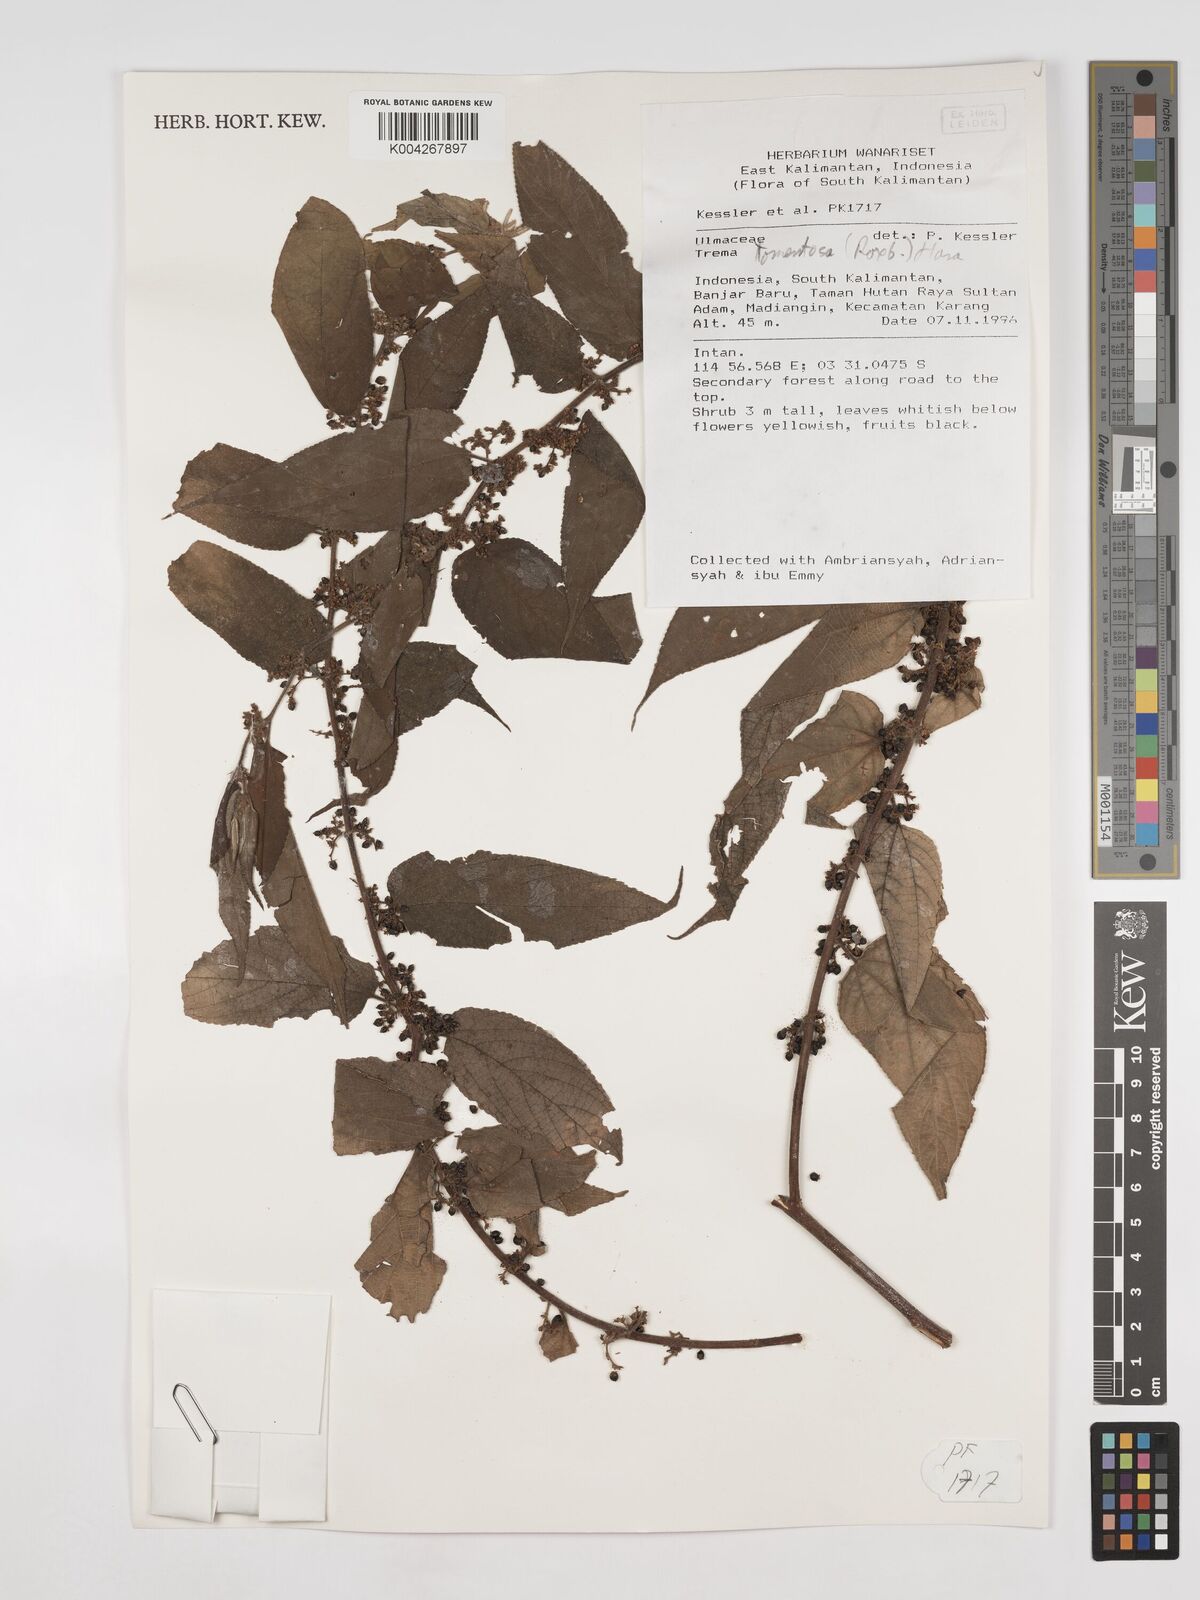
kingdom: Plantae
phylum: Tracheophyta
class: Magnoliopsida
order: Rosales
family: Cannabaceae
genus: Trema
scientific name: Trema tomentosum
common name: Peach-leaf-poisonbush
